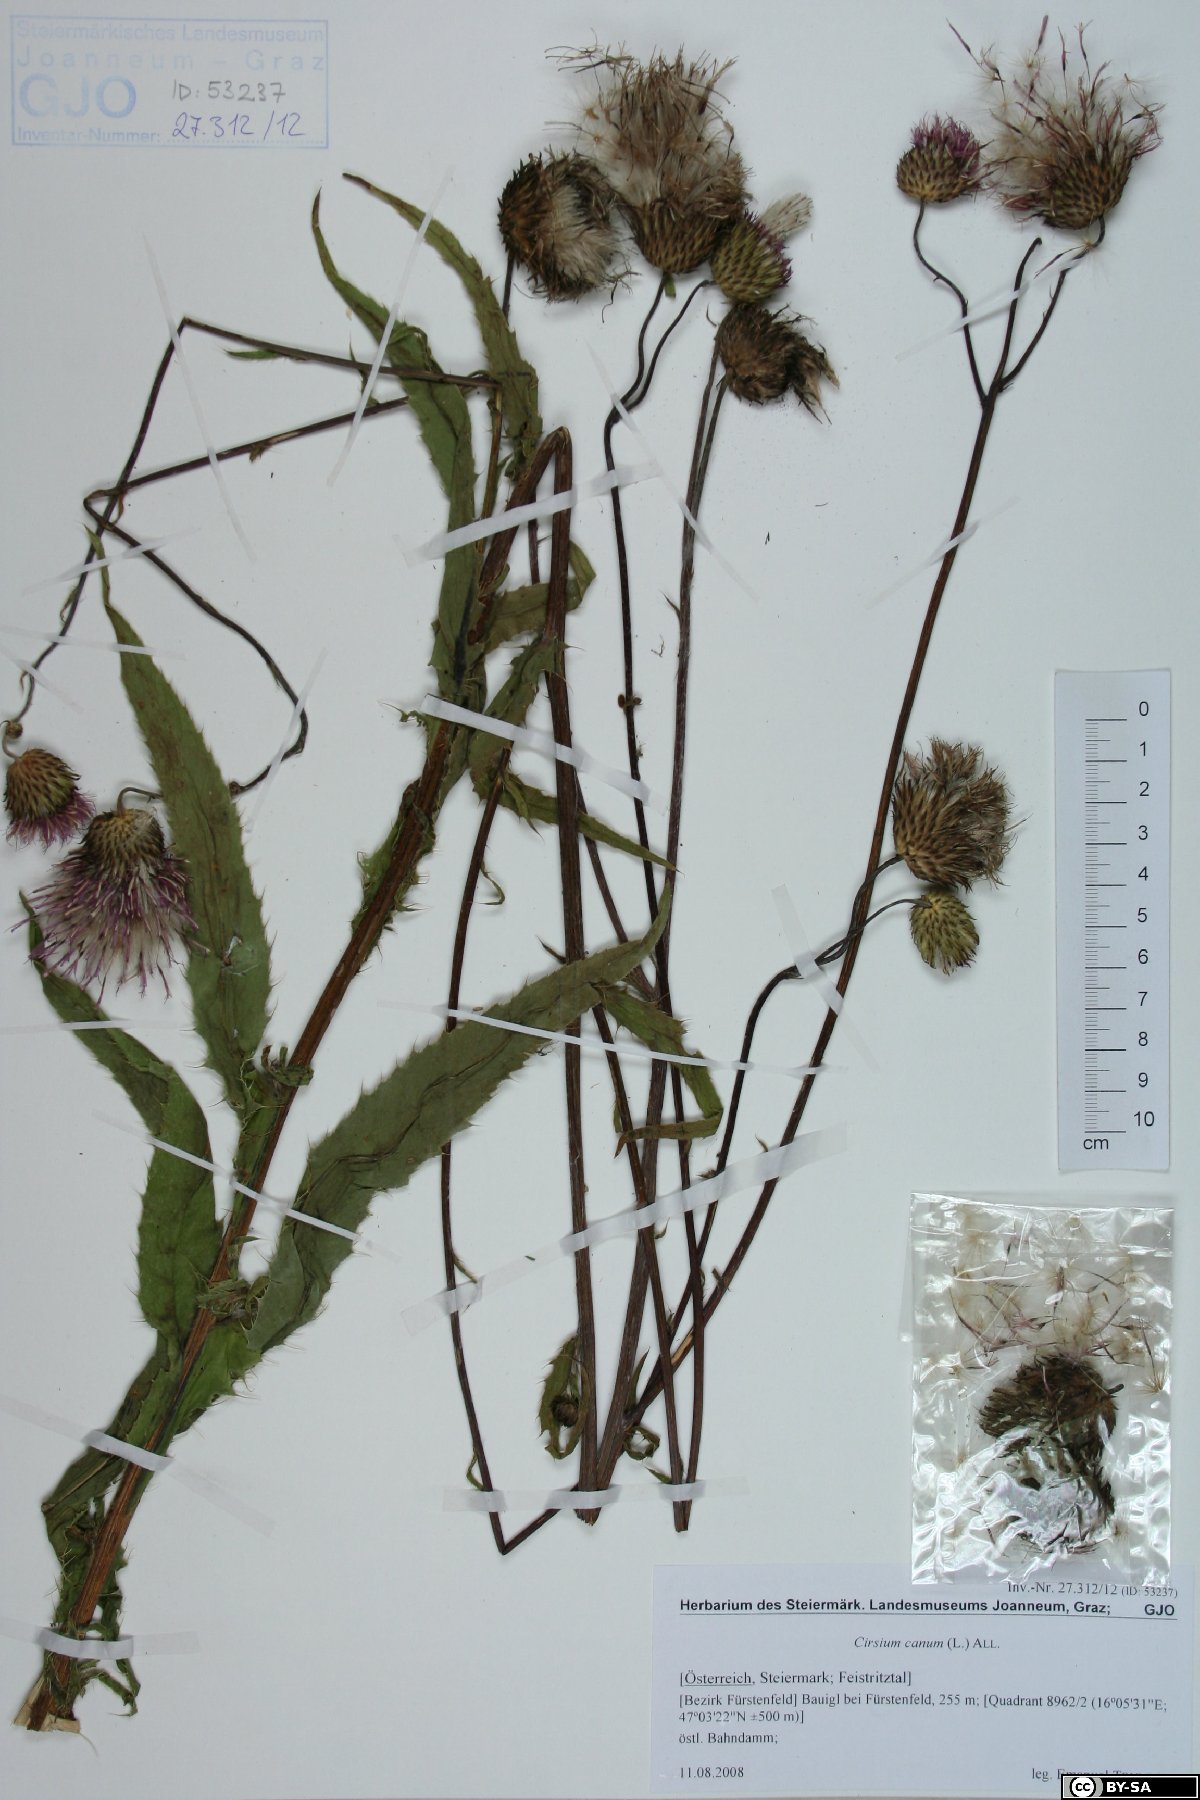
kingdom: Plantae
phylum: Tracheophyta
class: Magnoliopsida
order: Asterales
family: Asteraceae
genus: Cirsium
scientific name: Cirsium canum
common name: Queen anne's thistle
